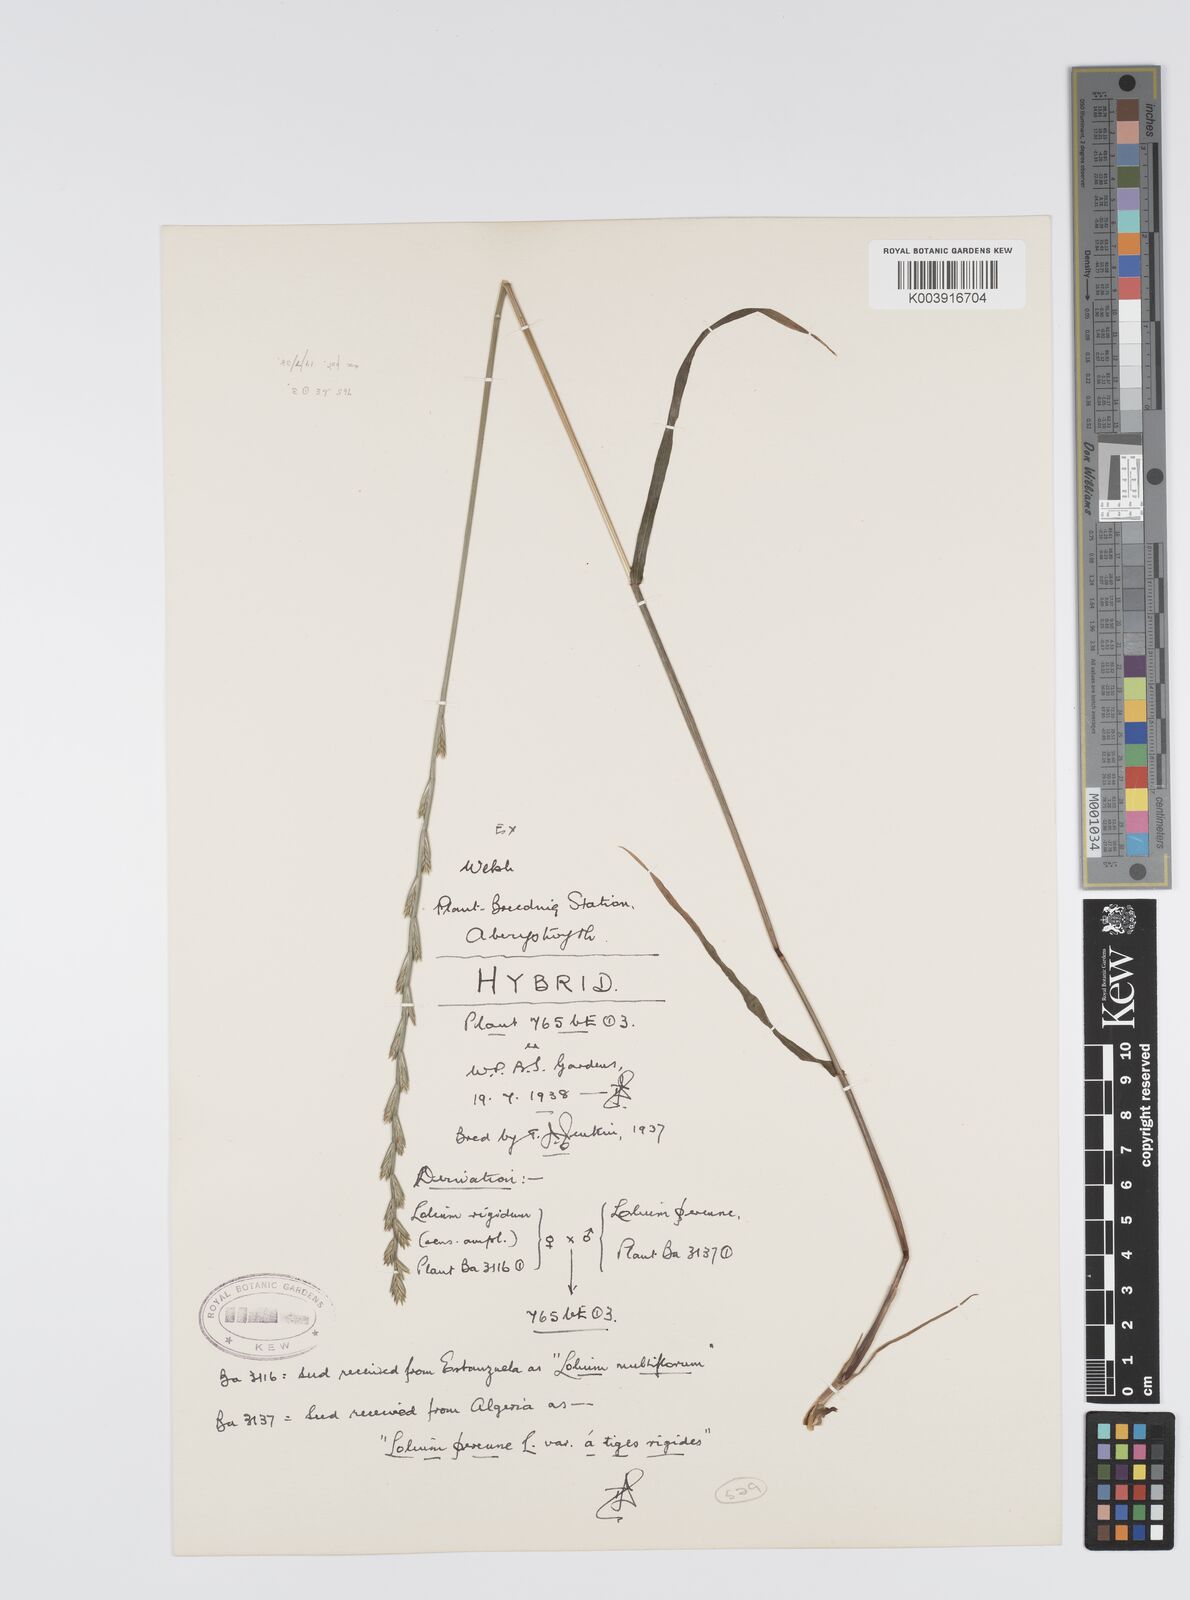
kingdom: Plantae
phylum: Tracheophyta
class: Liliopsida
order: Poales
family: Poaceae
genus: Lolium
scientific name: Lolium perenne
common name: Perennial ryegrass
